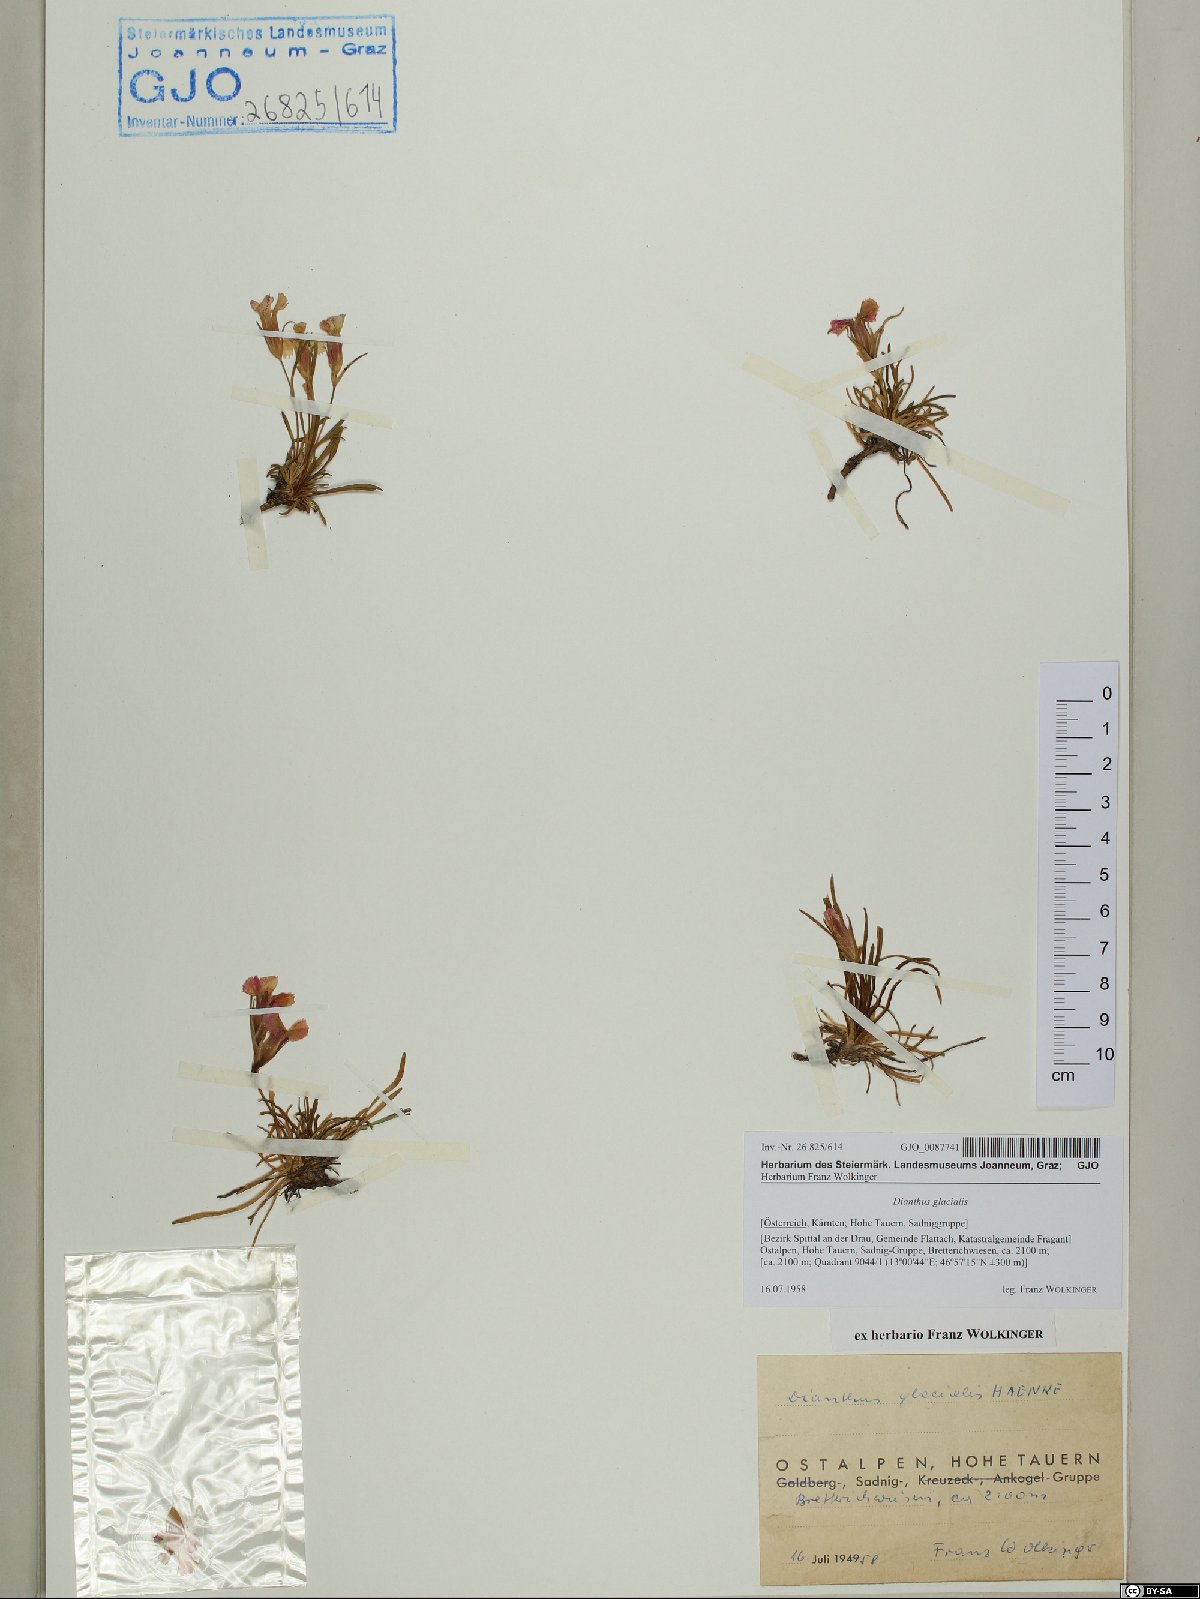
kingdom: Plantae
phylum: Tracheophyta
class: Magnoliopsida
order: Caryophyllales
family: Caryophyllaceae
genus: Dianthus
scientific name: Dianthus glacialis
